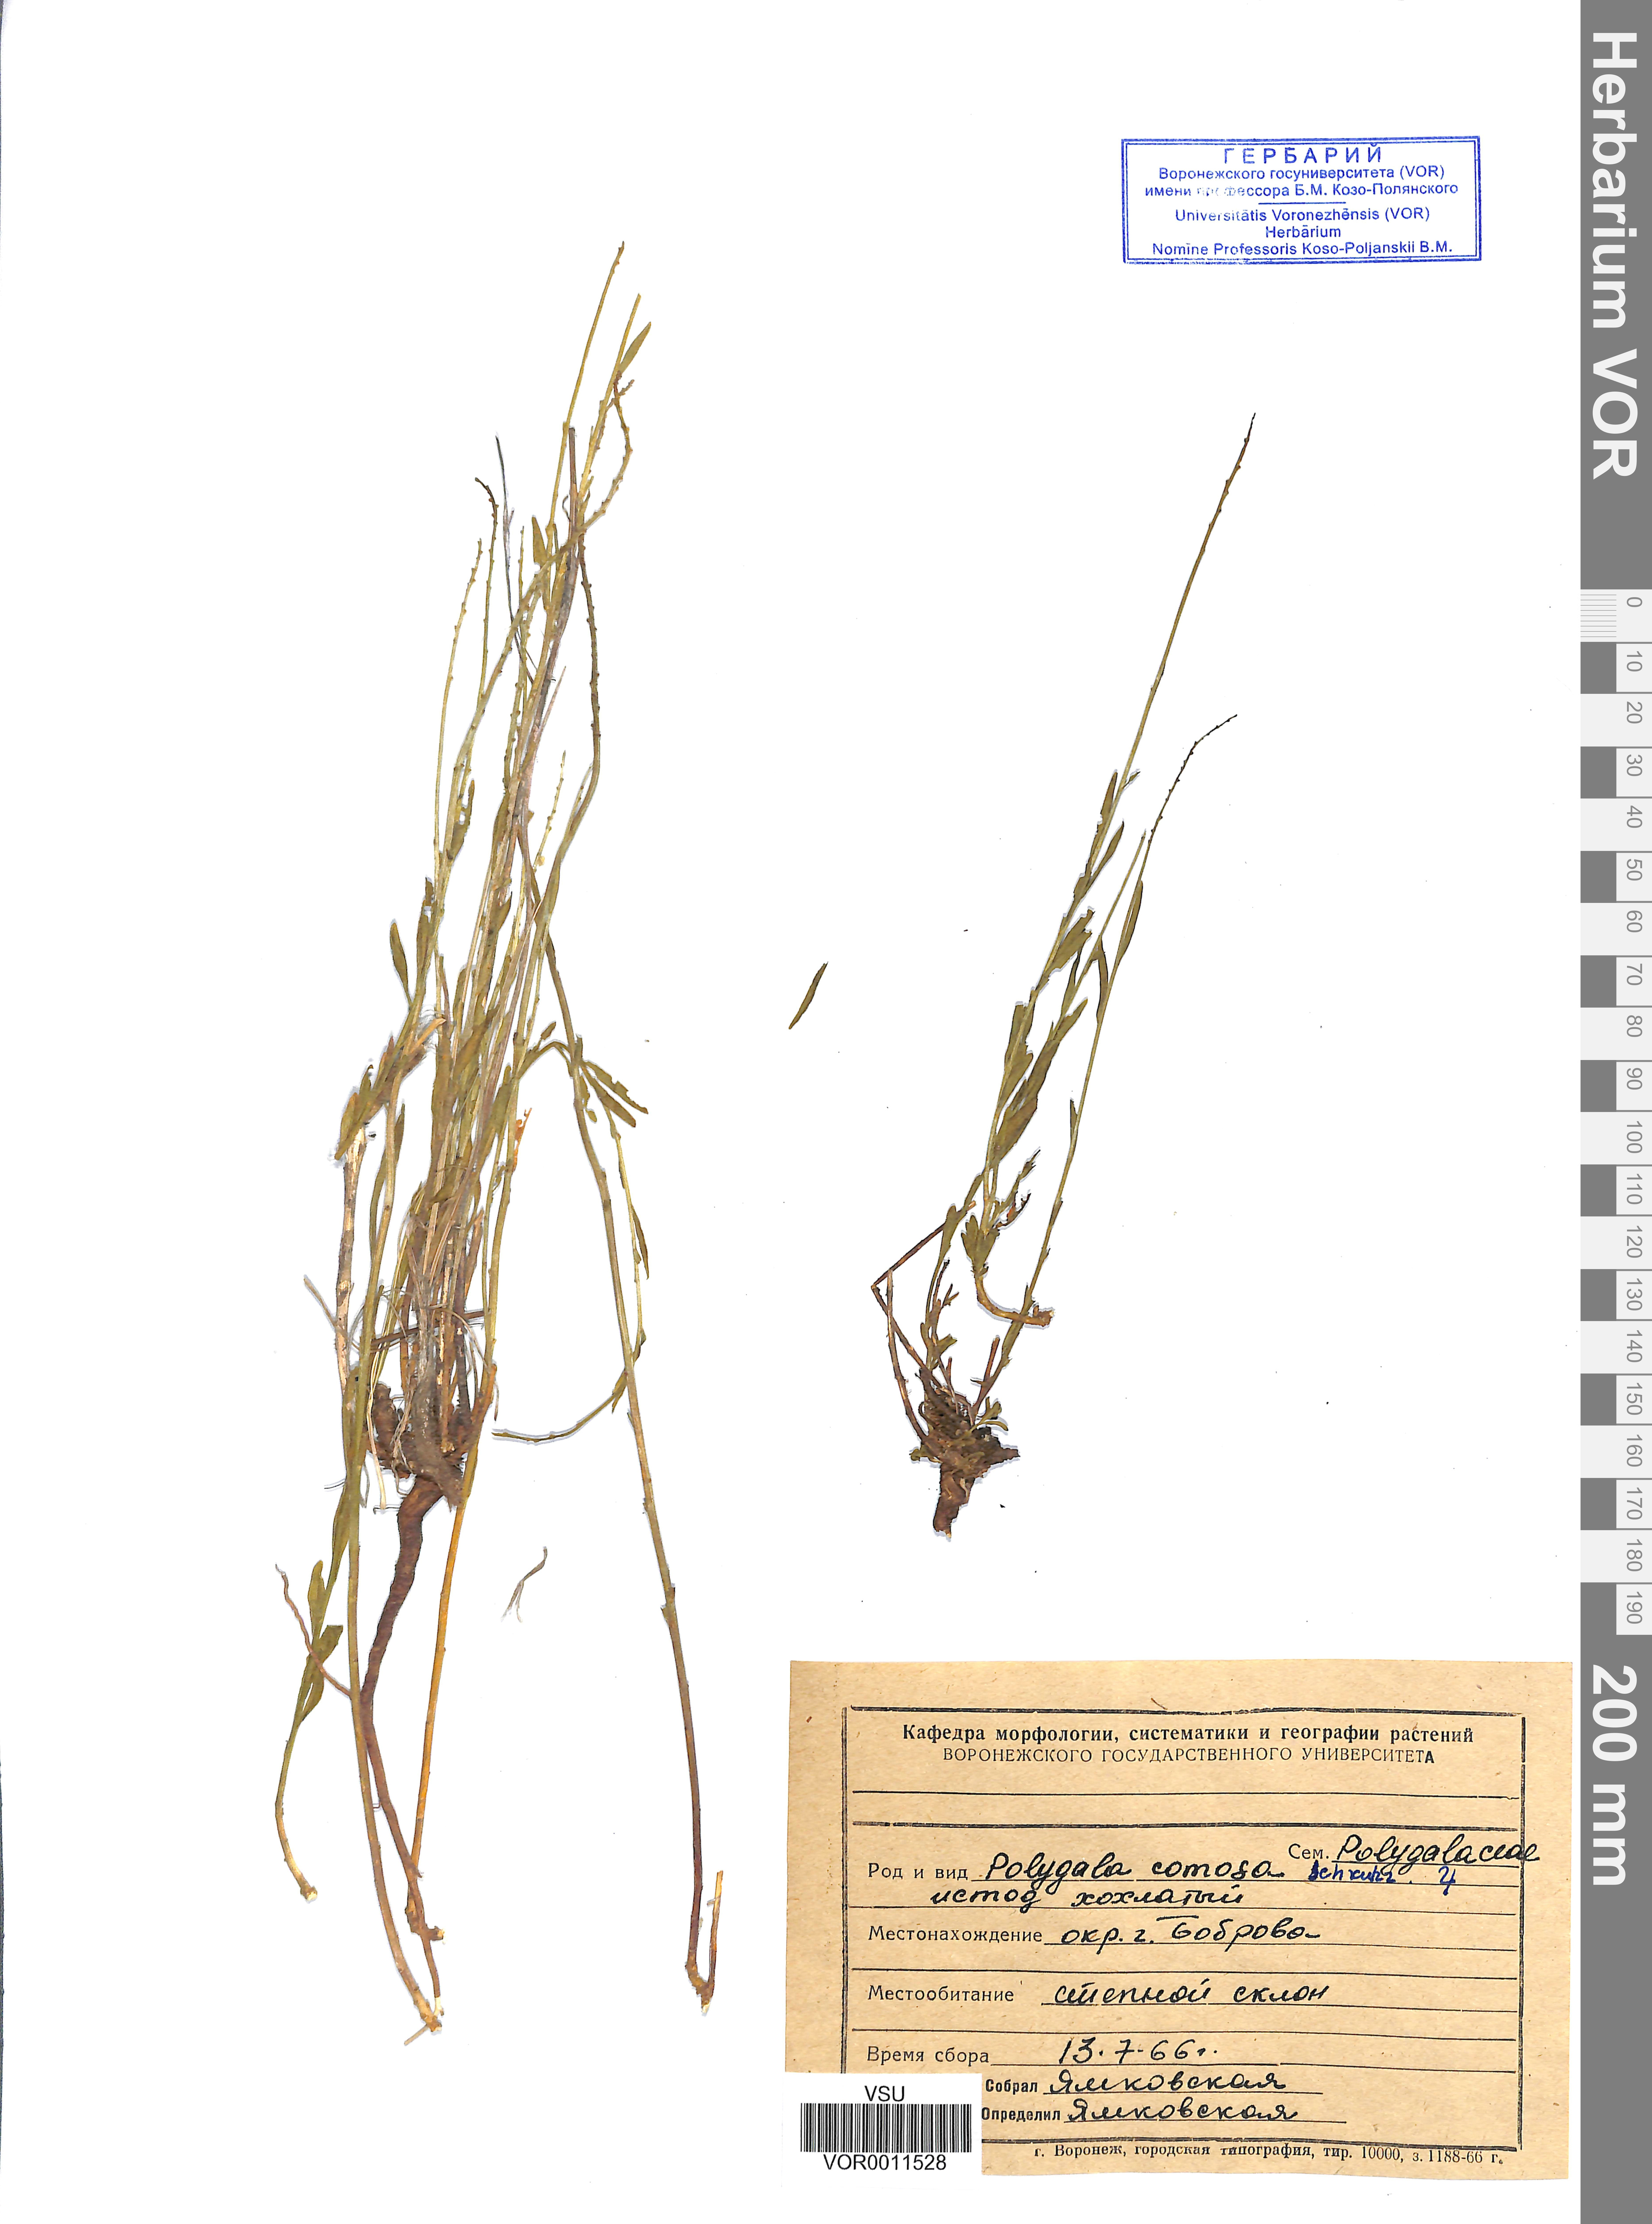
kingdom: Plantae
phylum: Tracheophyta
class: Magnoliopsida
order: Fabales
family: Polygalaceae
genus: Polygala
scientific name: Polygala comosa
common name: Tufted milkwort
